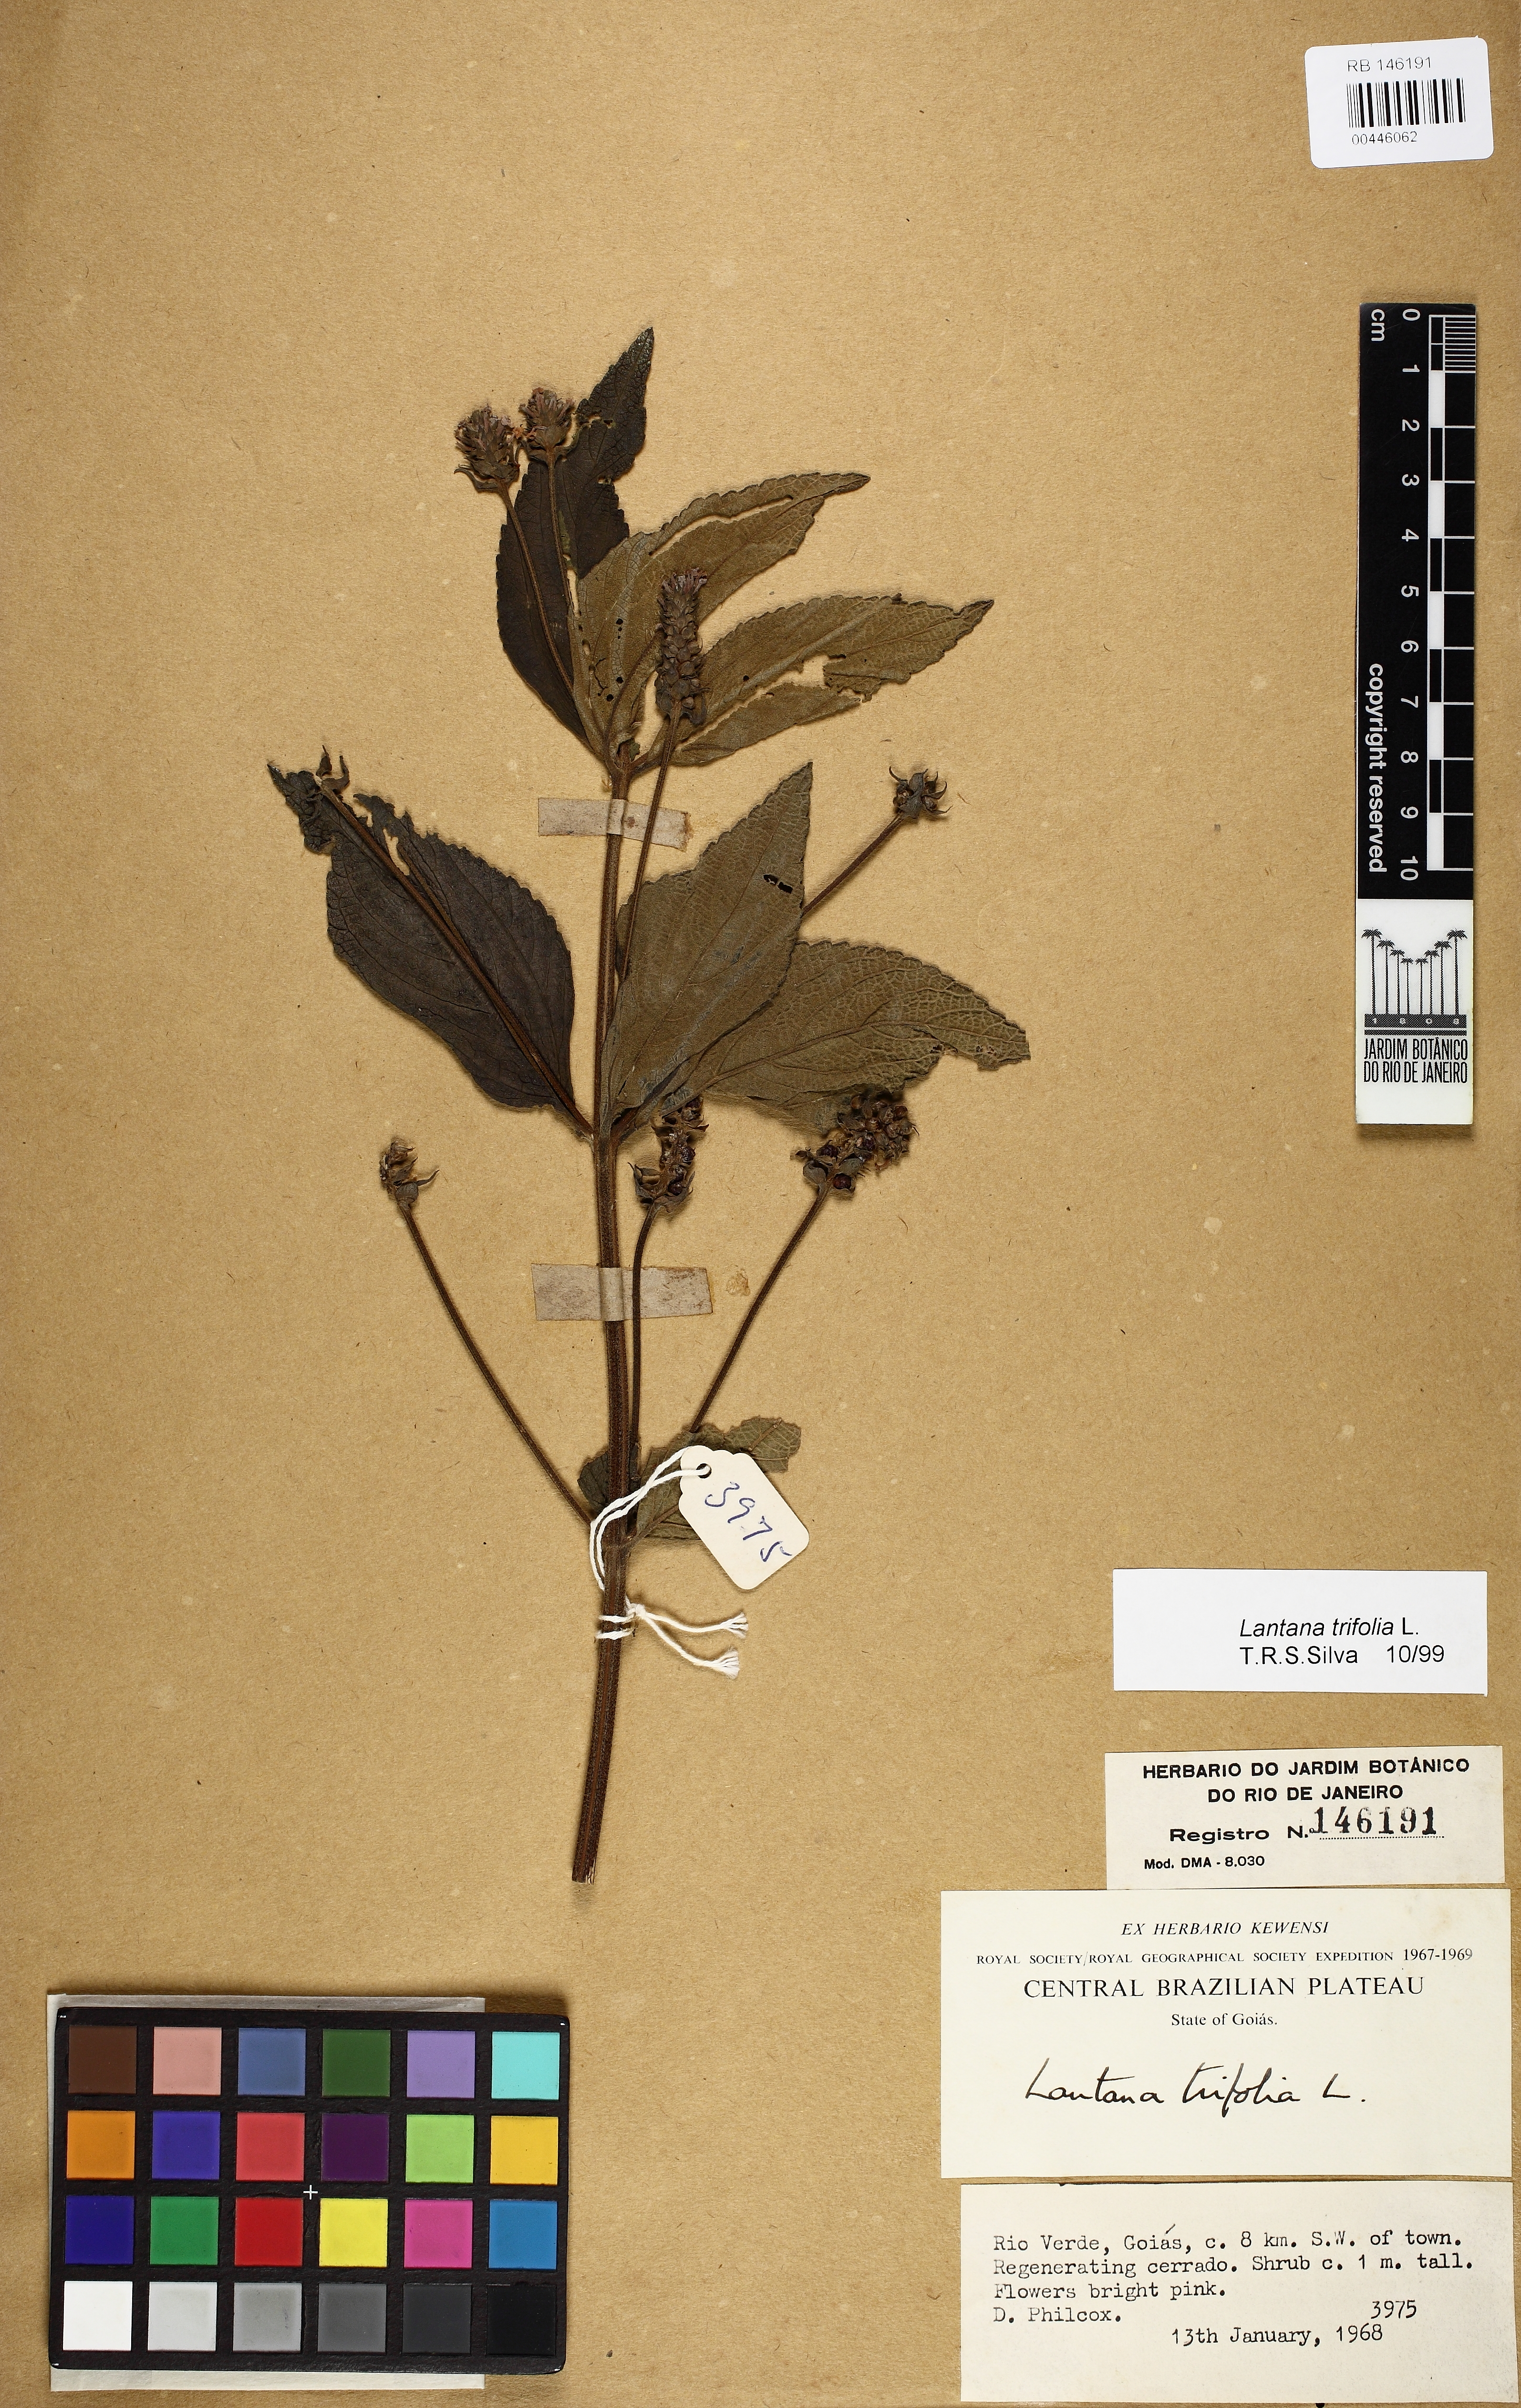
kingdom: Plantae
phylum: Tracheophyta
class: Magnoliopsida
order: Lamiales
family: Verbenaceae
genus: Lantana
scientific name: Lantana trifolia
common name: Sweet-sage
